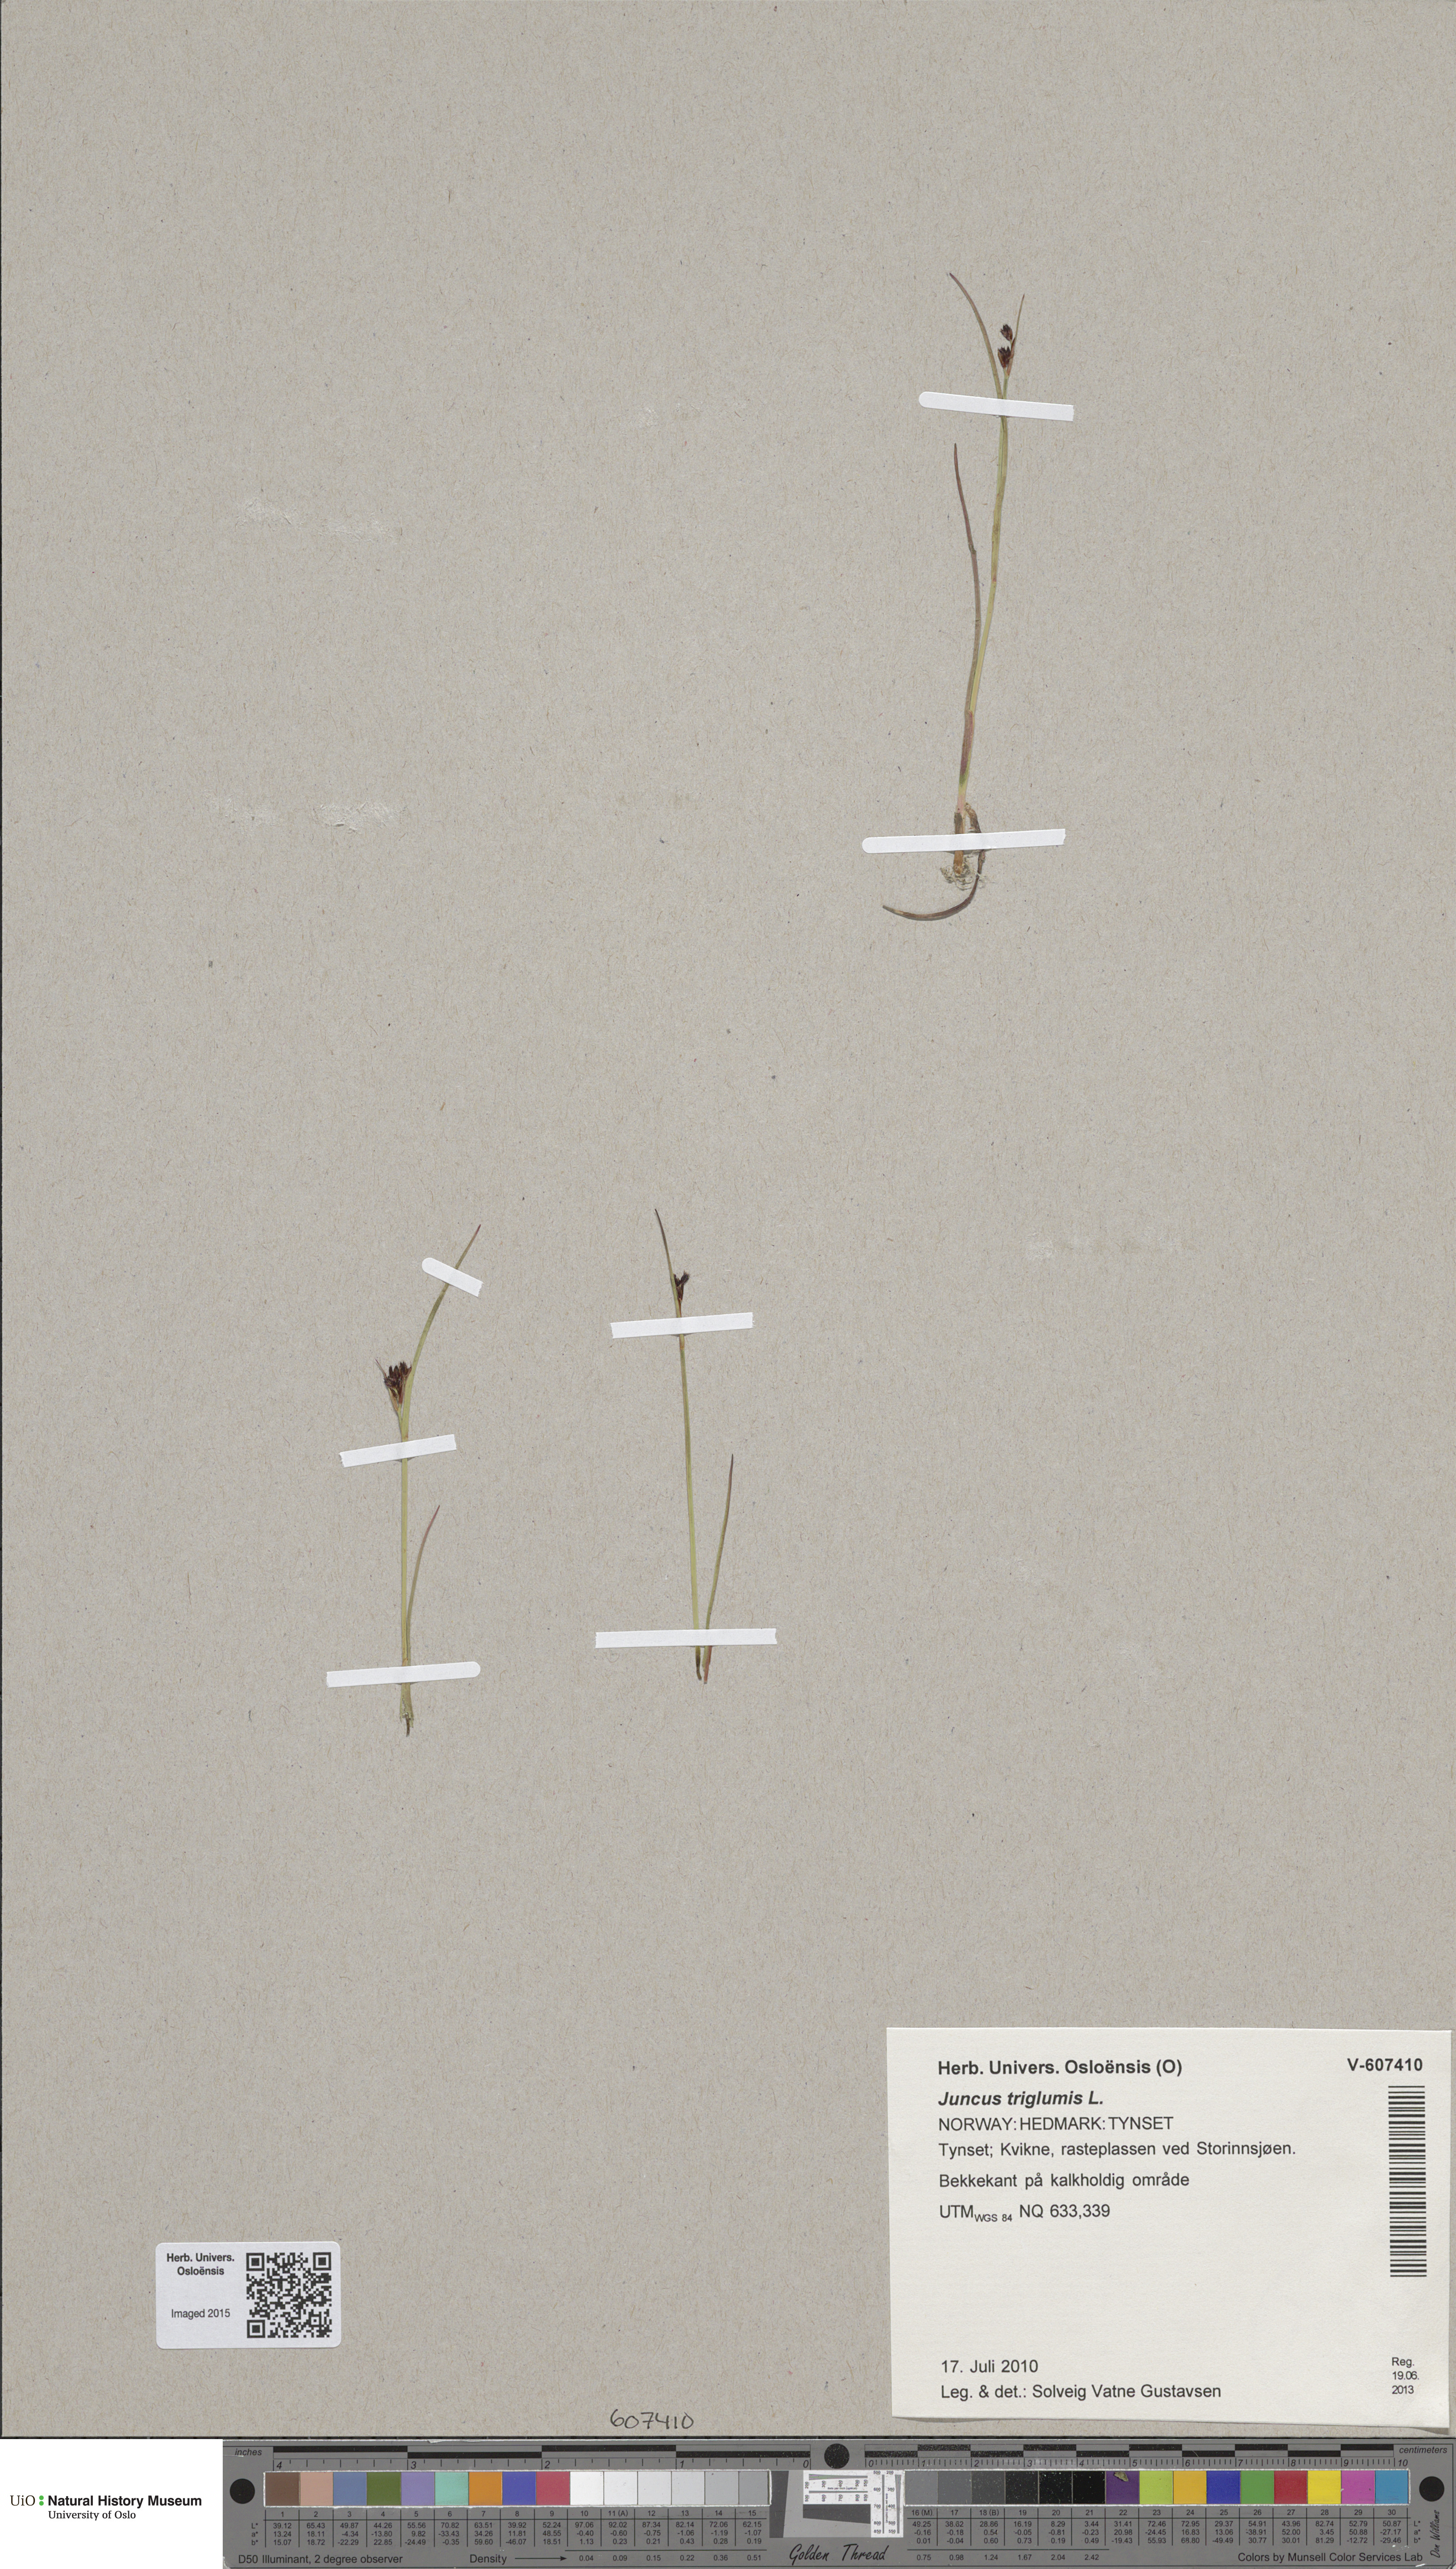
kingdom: Plantae
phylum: Tracheophyta
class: Liliopsida
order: Poales
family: Juncaceae
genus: Juncus
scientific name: Juncus alpinoarticulatus
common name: Alpine rush
